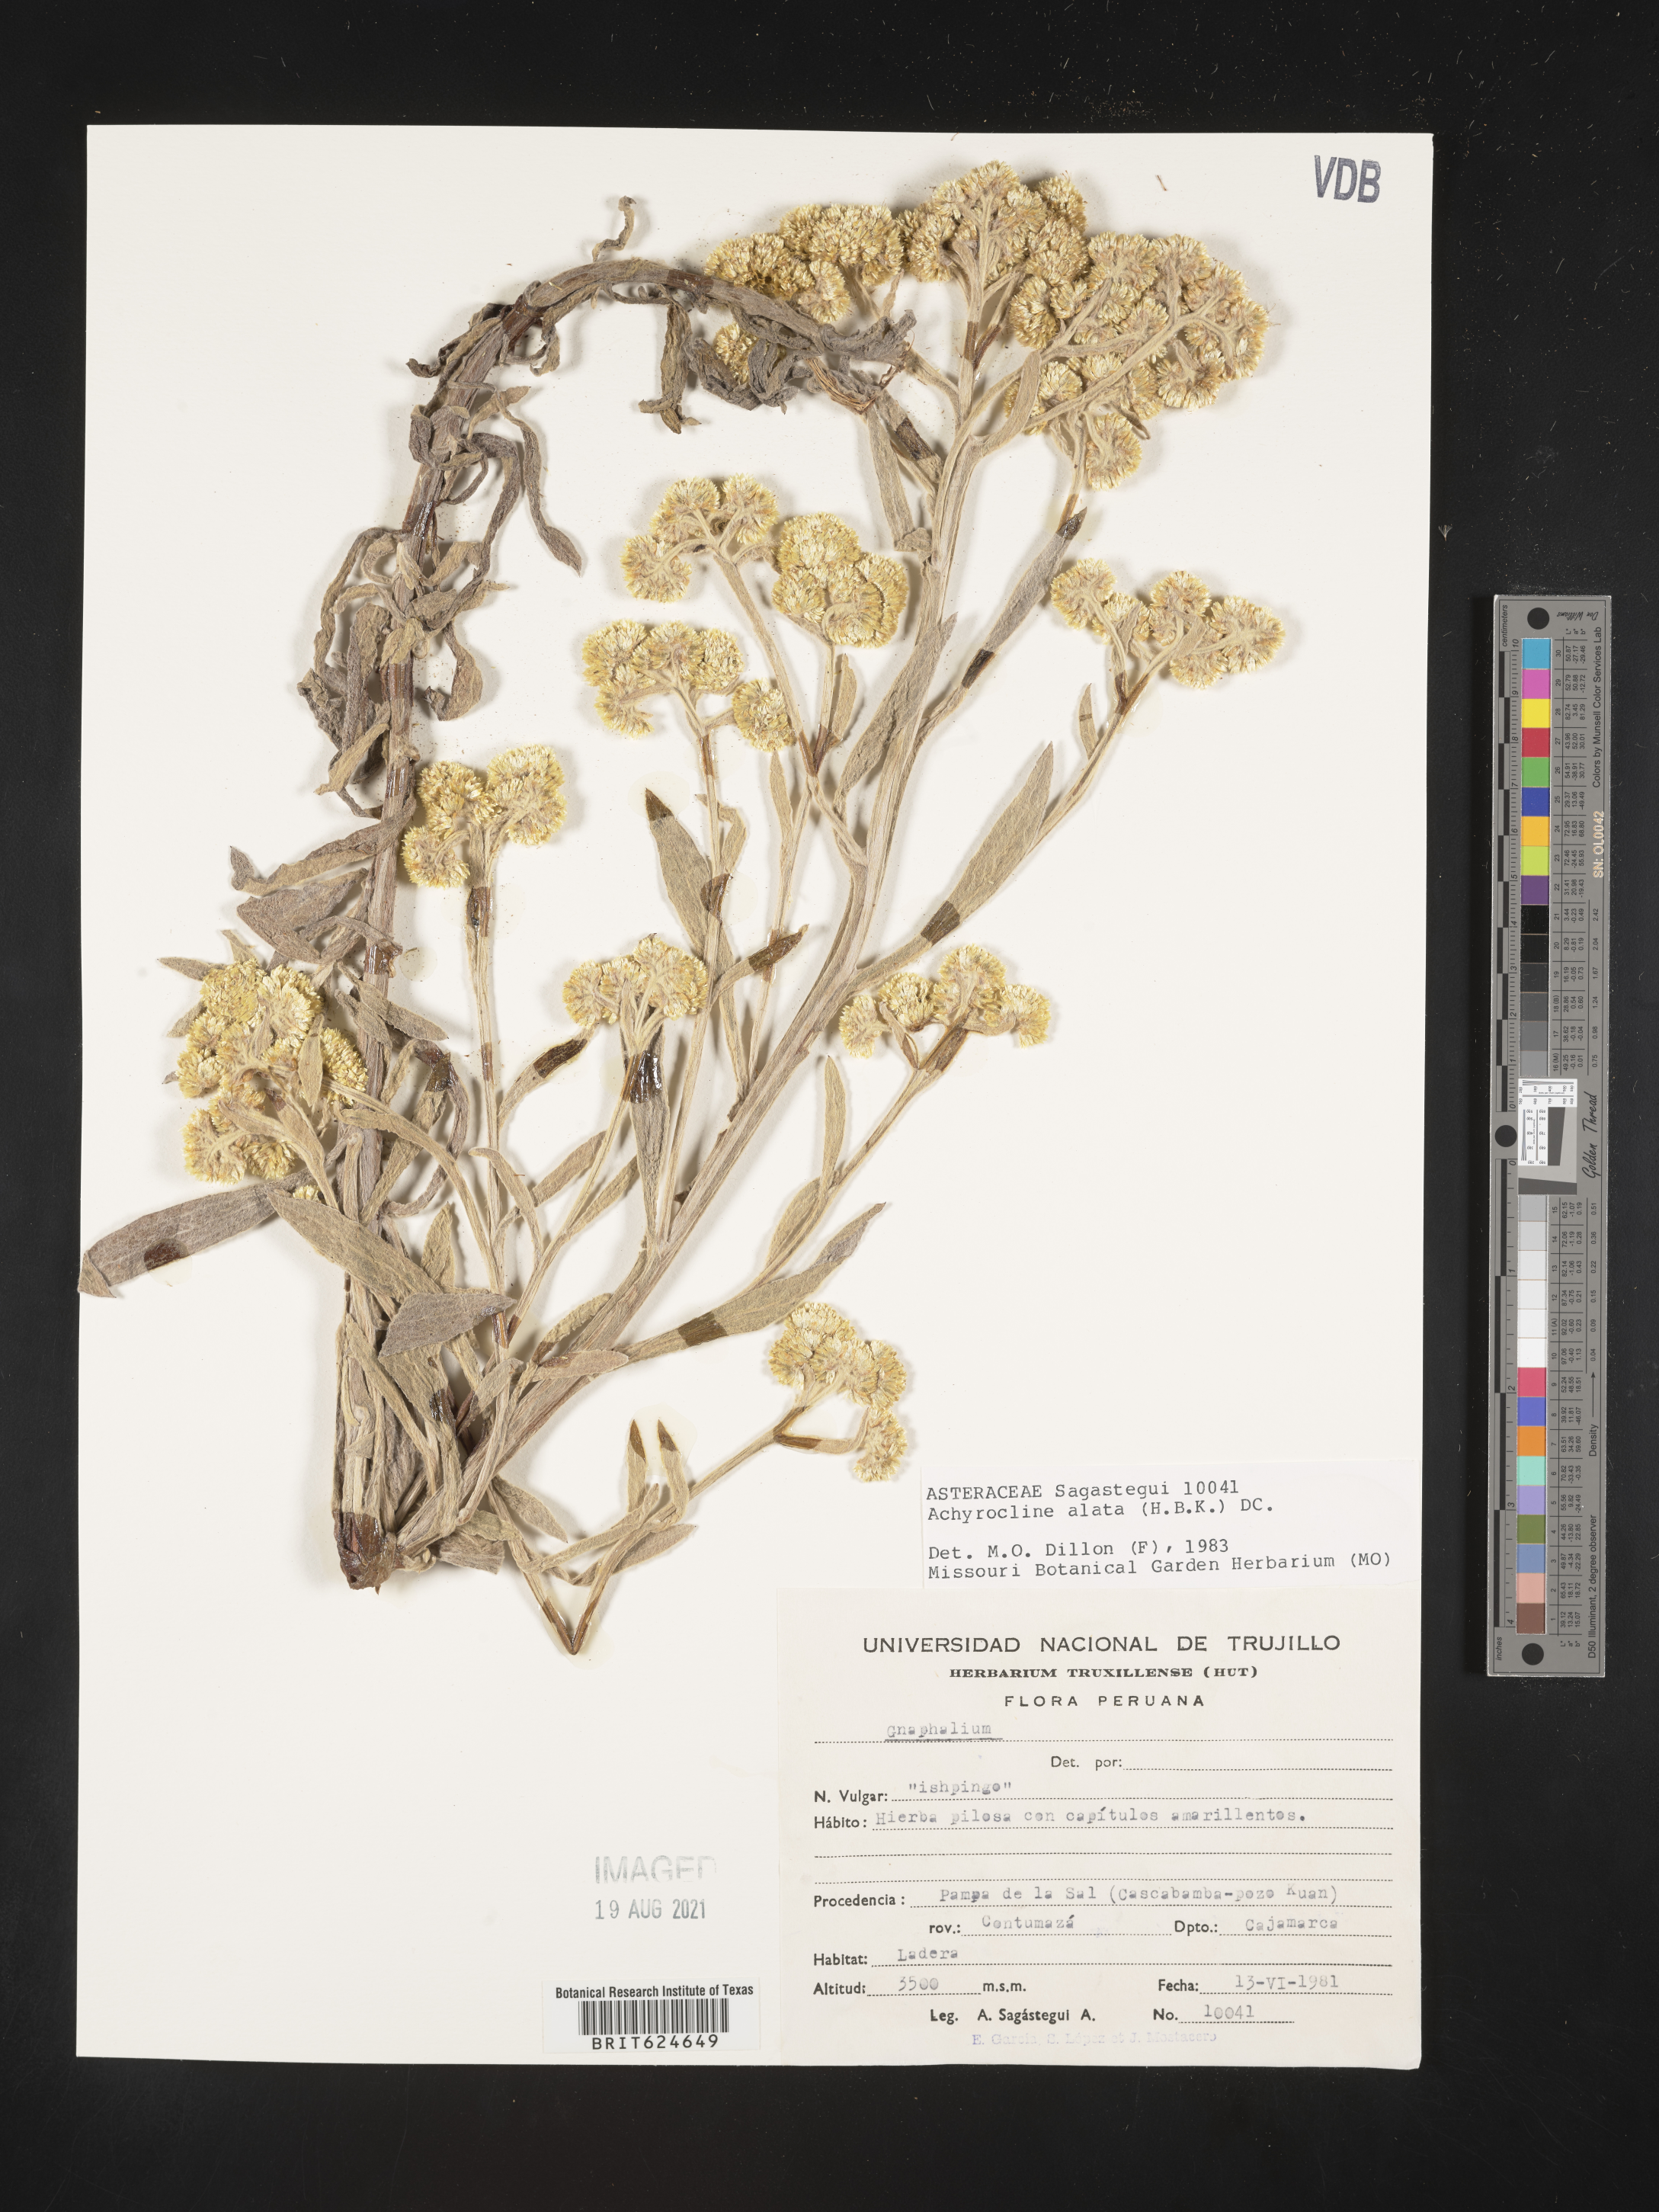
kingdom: Plantae
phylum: Tracheophyta
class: Magnoliopsida
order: Asterales
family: Asteraceae
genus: Achyrocline
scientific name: Achyrocline alata
